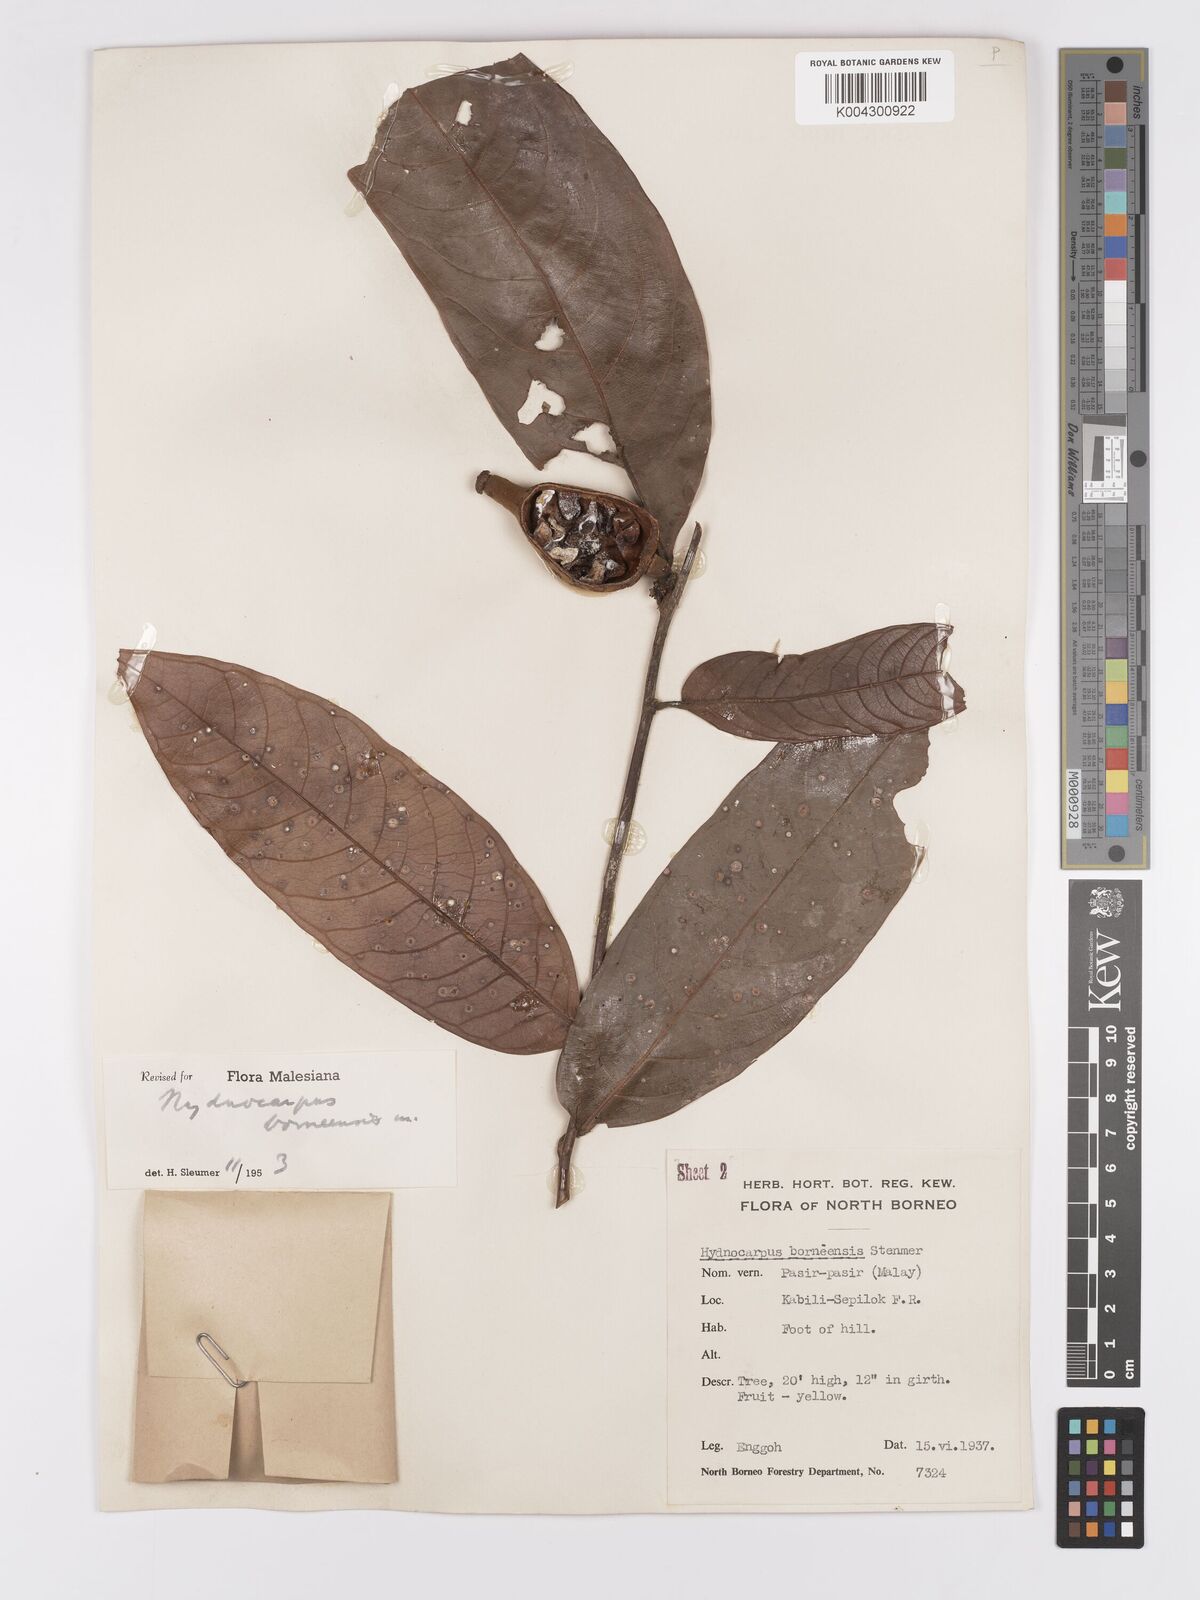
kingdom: Plantae
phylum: Tracheophyta
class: Magnoliopsida
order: Malpighiales
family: Achariaceae
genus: Hydnocarpus
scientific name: Hydnocarpus borneensis
